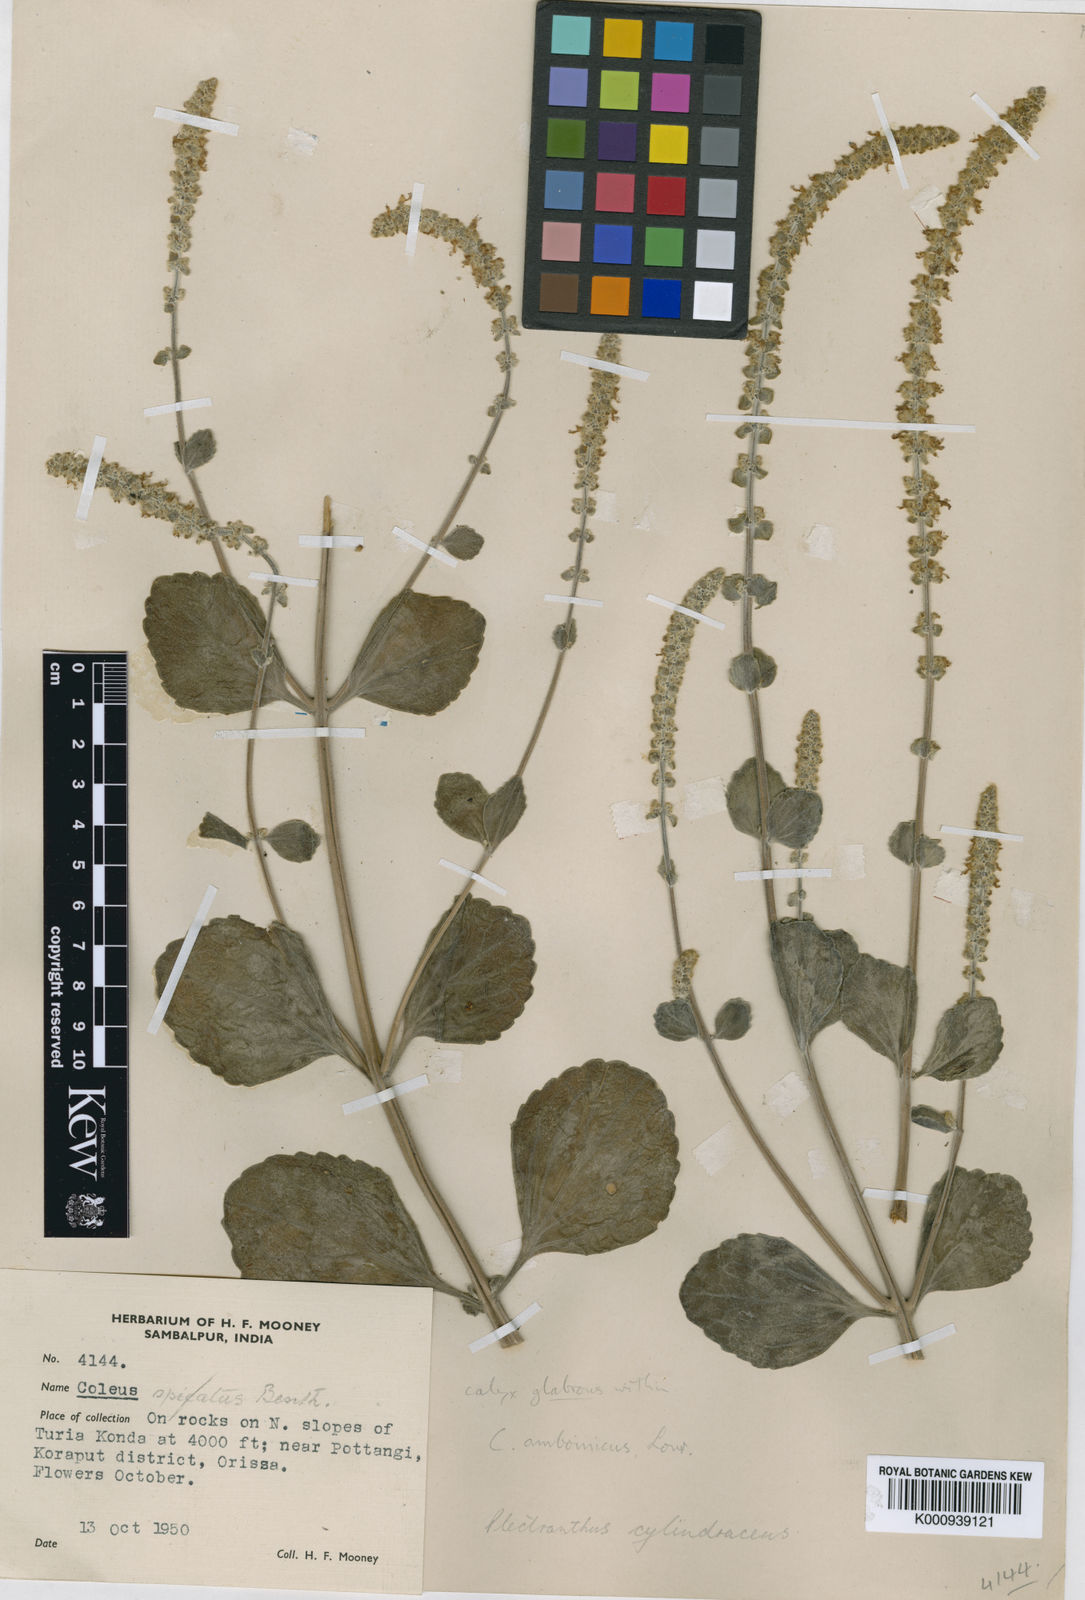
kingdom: Plantae
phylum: Tracheophyta
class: Magnoliopsida
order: Lamiales
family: Lamiaceae
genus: Coleus
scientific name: Coleus cylindraceus
